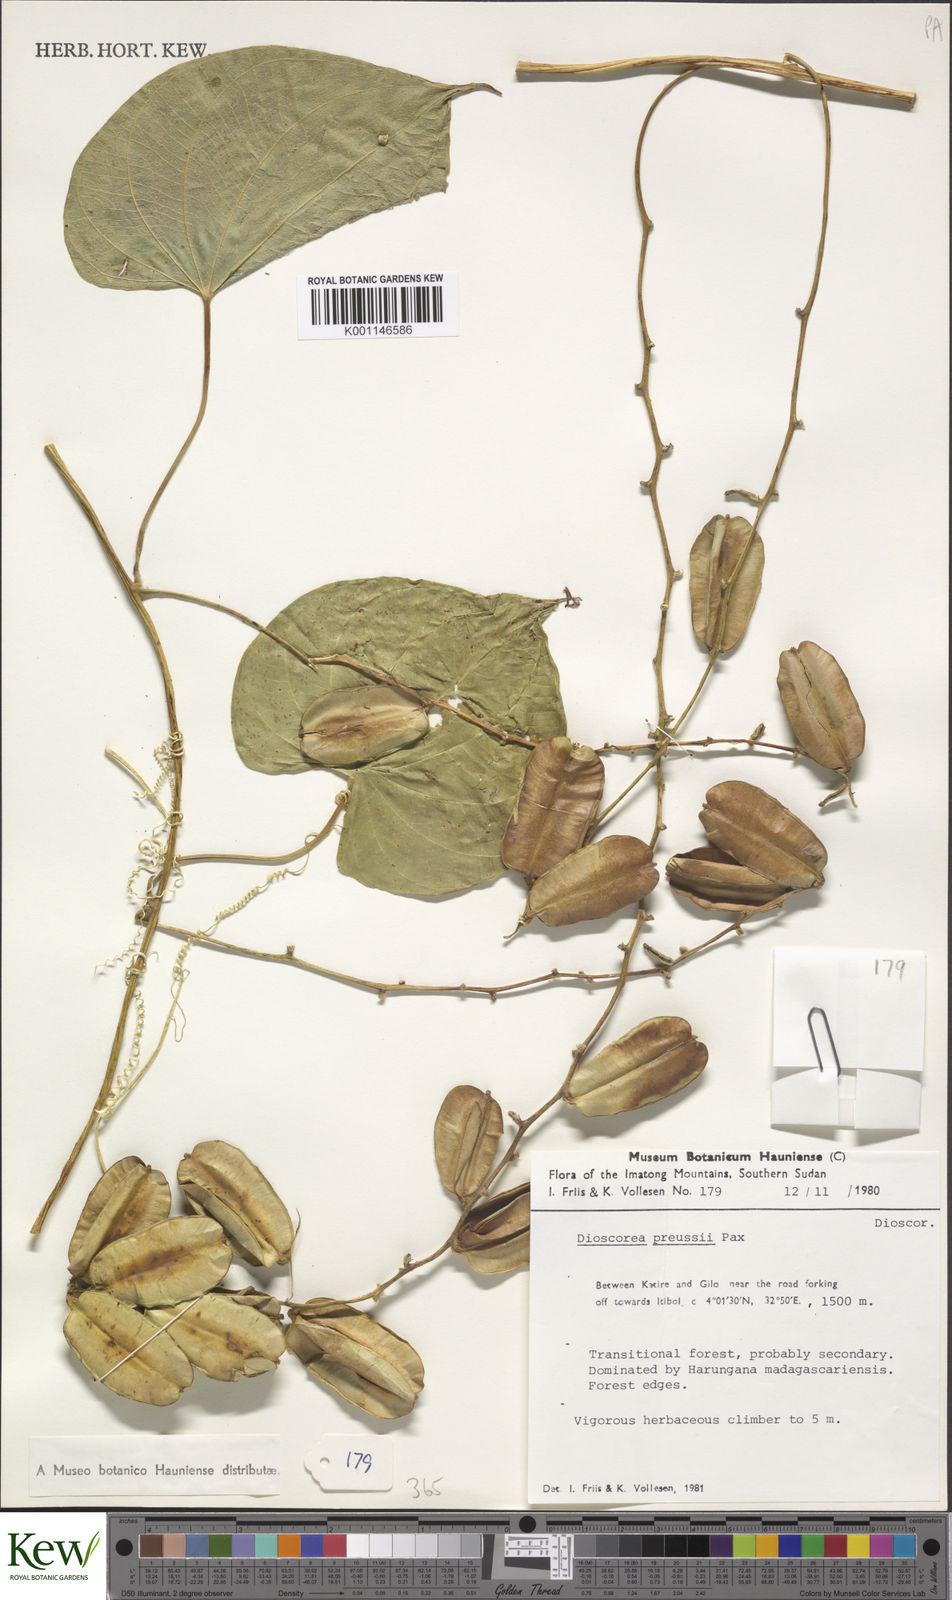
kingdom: Plantae
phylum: Tracheophyta
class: Liliopsida
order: Dioscoreales
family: Dioscoreaceae
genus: Dioscorea
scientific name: Dioscorea preussii
